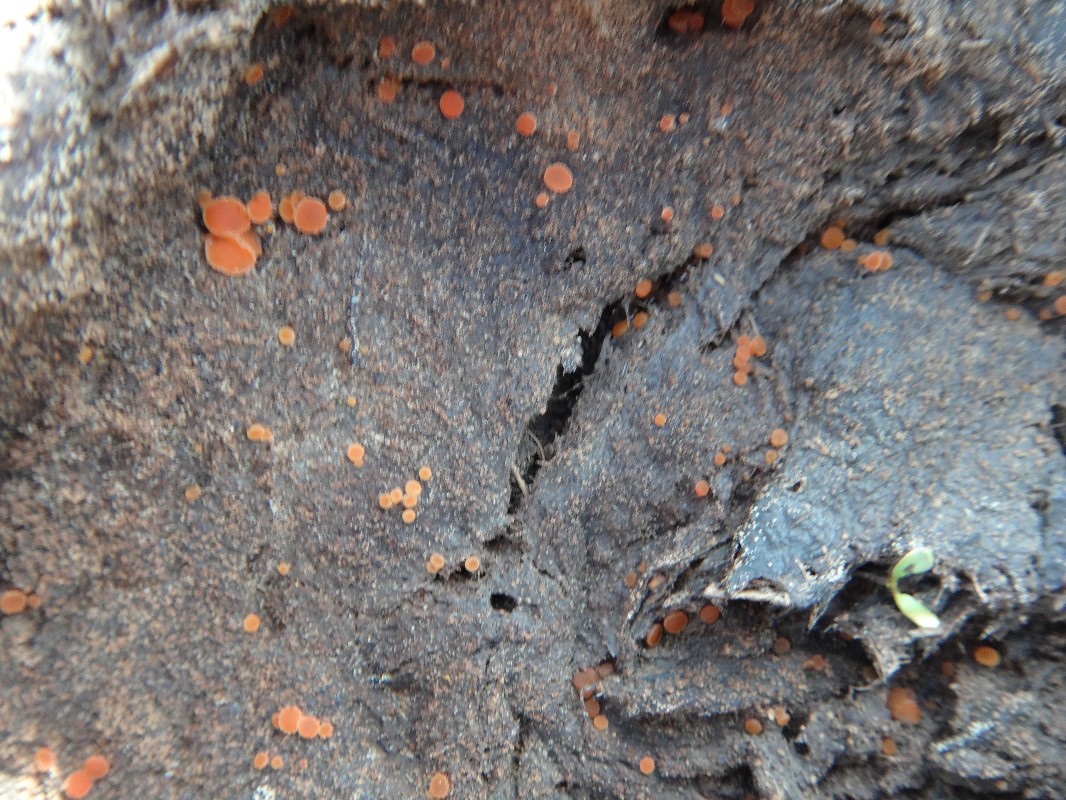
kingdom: Fungi
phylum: Ascomycota
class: Pezizomycetes
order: Pezizales
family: Pyronemataceae
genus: Cheilymenia
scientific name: Cheilymenia granulata
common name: møgbæger
